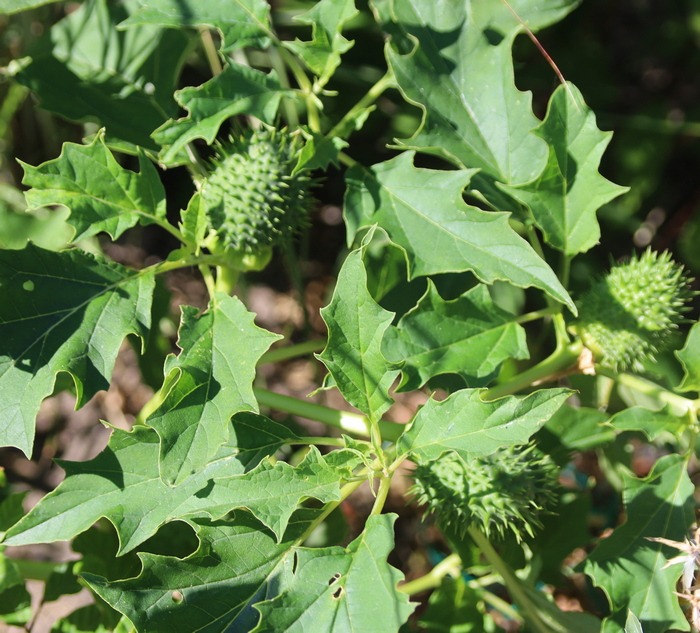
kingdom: Plantae
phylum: Tracheophyta
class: Magnoliopsida
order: Solanales
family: Solanaceae
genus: Datura
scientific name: Datura stramonium
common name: Pigæble
